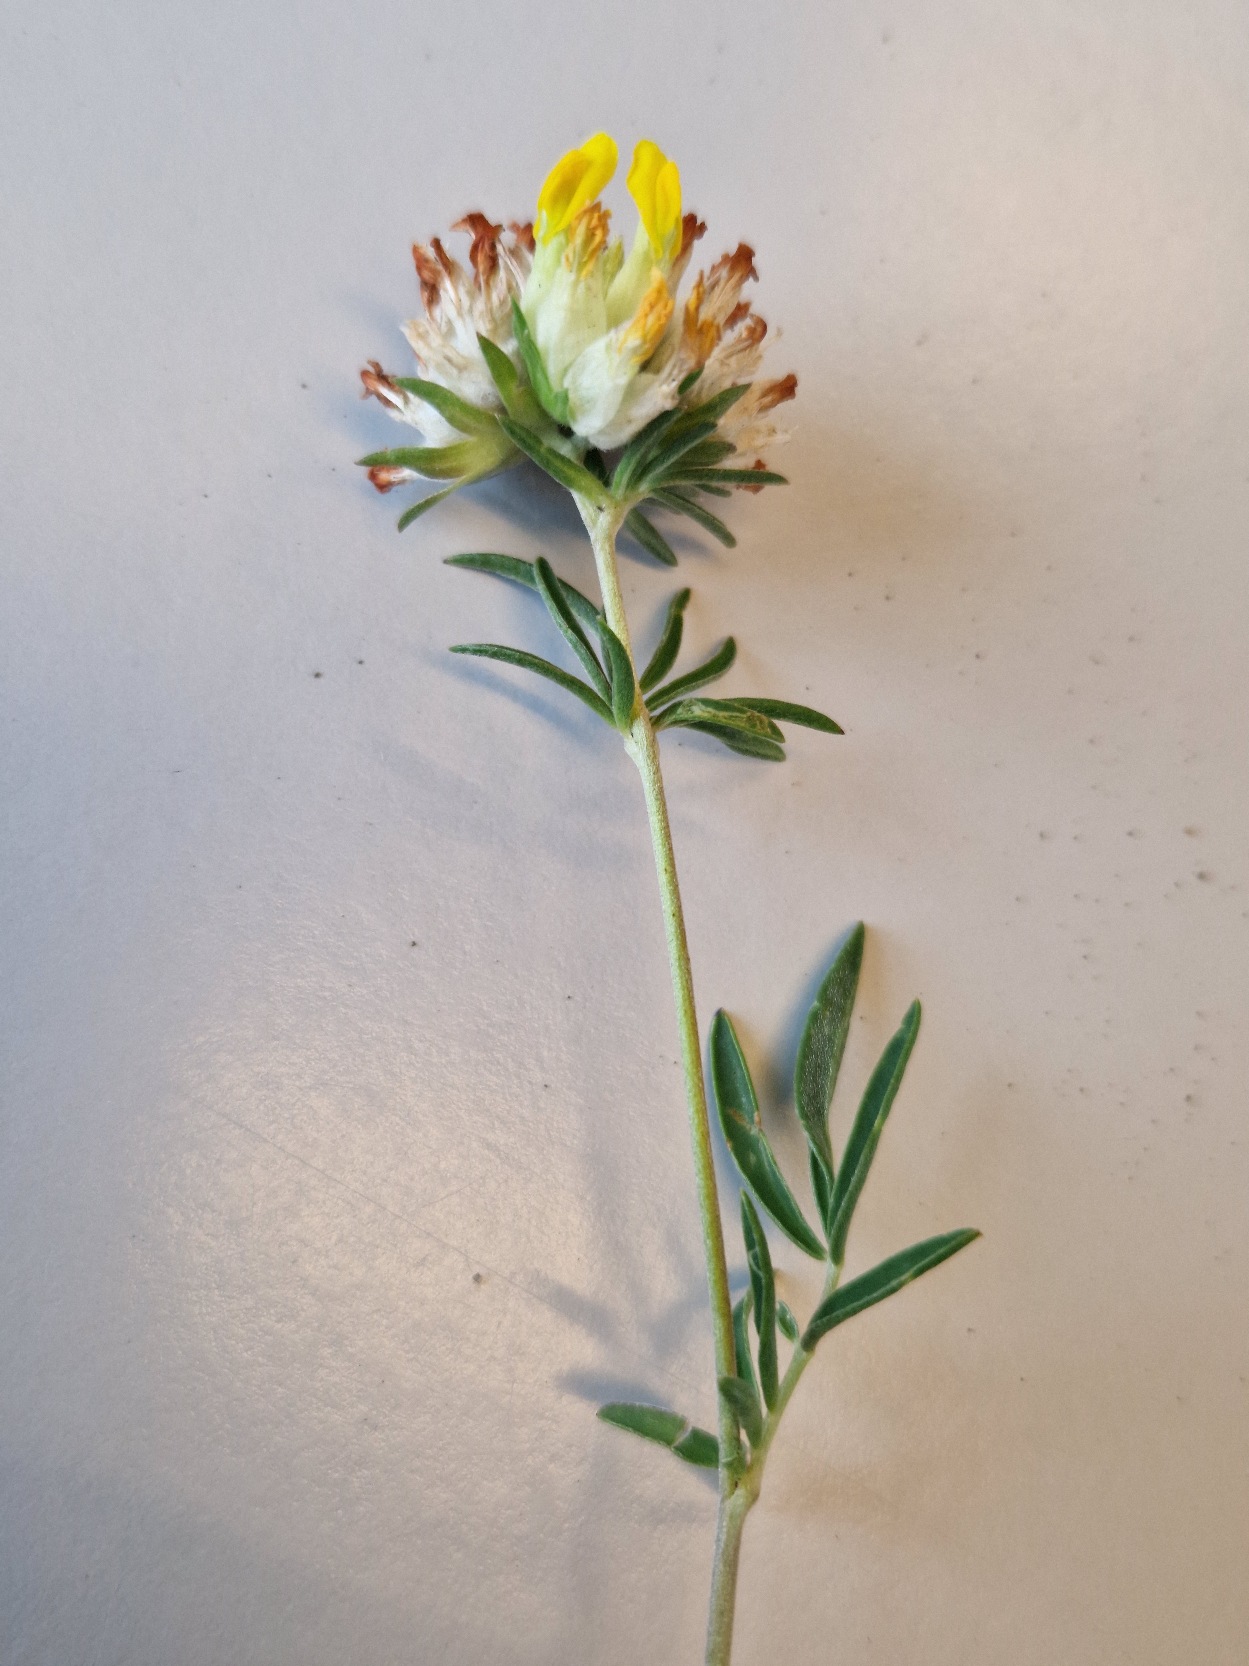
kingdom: Plantae
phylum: Tracheophyta
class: Magnoliopsida
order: Fabales
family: Fabaceae
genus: Anthyllis
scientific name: Anthyllis vulneraria
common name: Rundbælg
